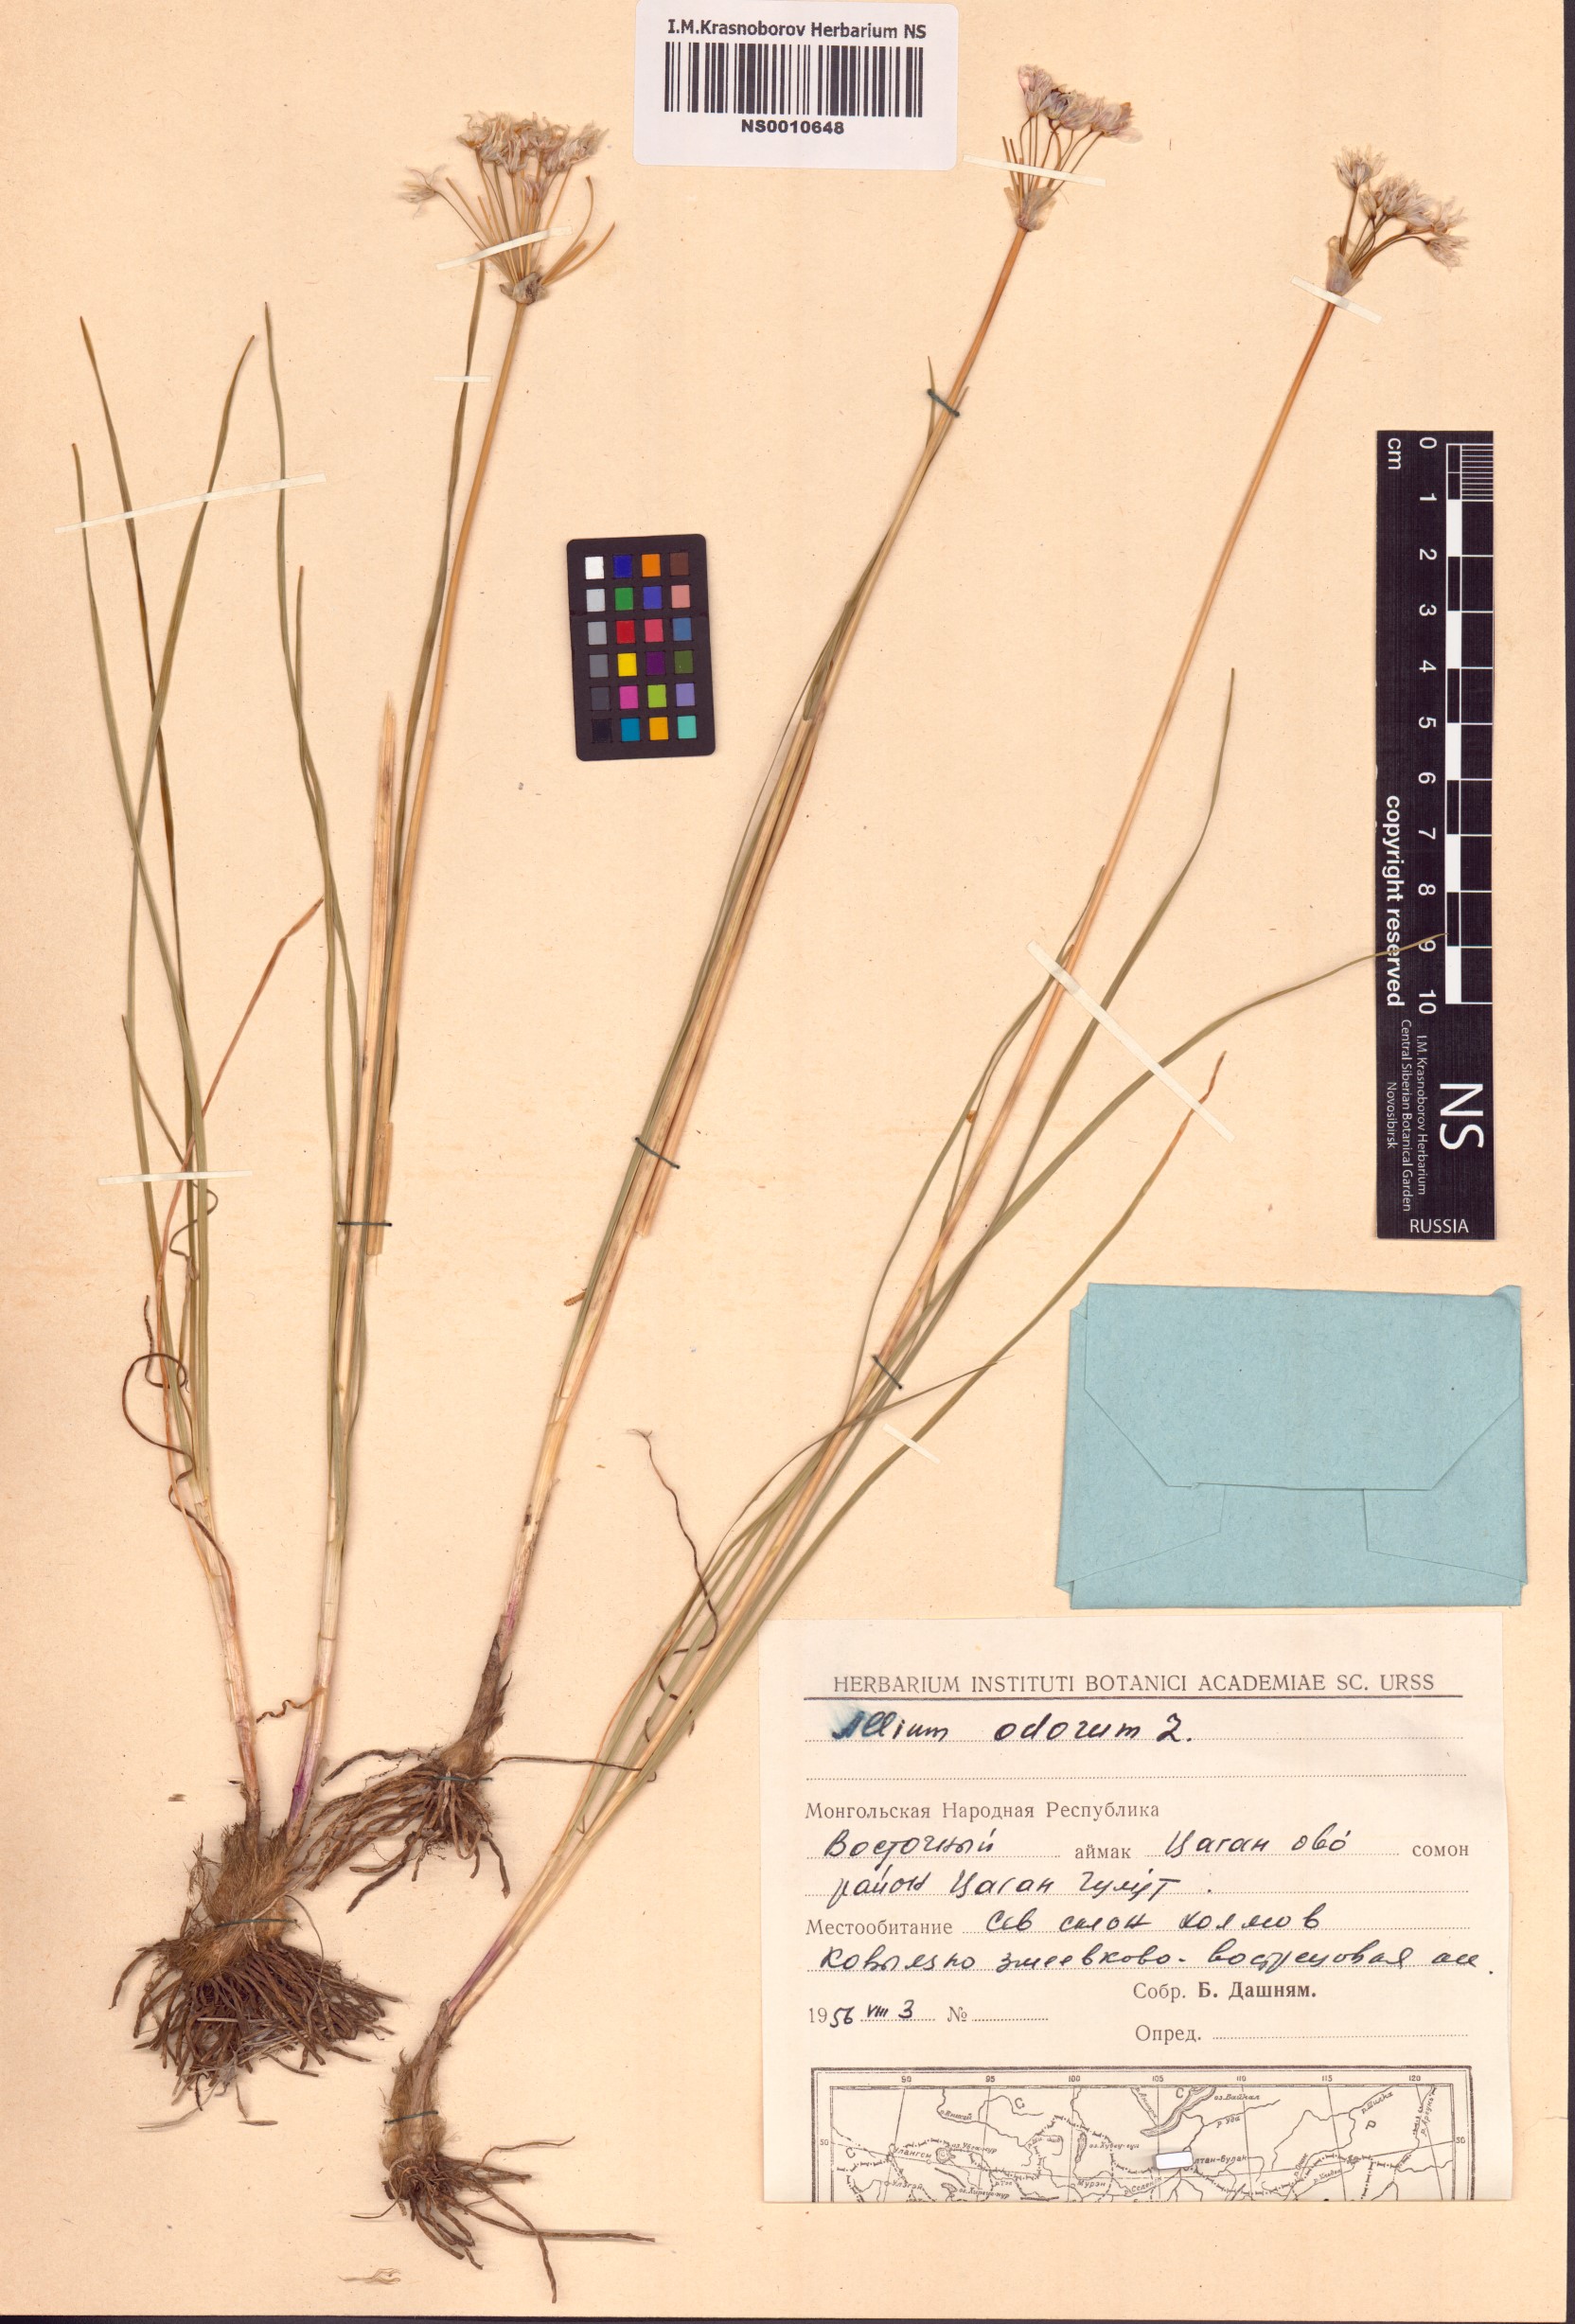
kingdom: Plantae
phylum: Tracheophyta
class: Liliopsida
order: Asparagales
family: Amaryllidaceae
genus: Allium
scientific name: Allium ramosum
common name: Fragrant garlic
